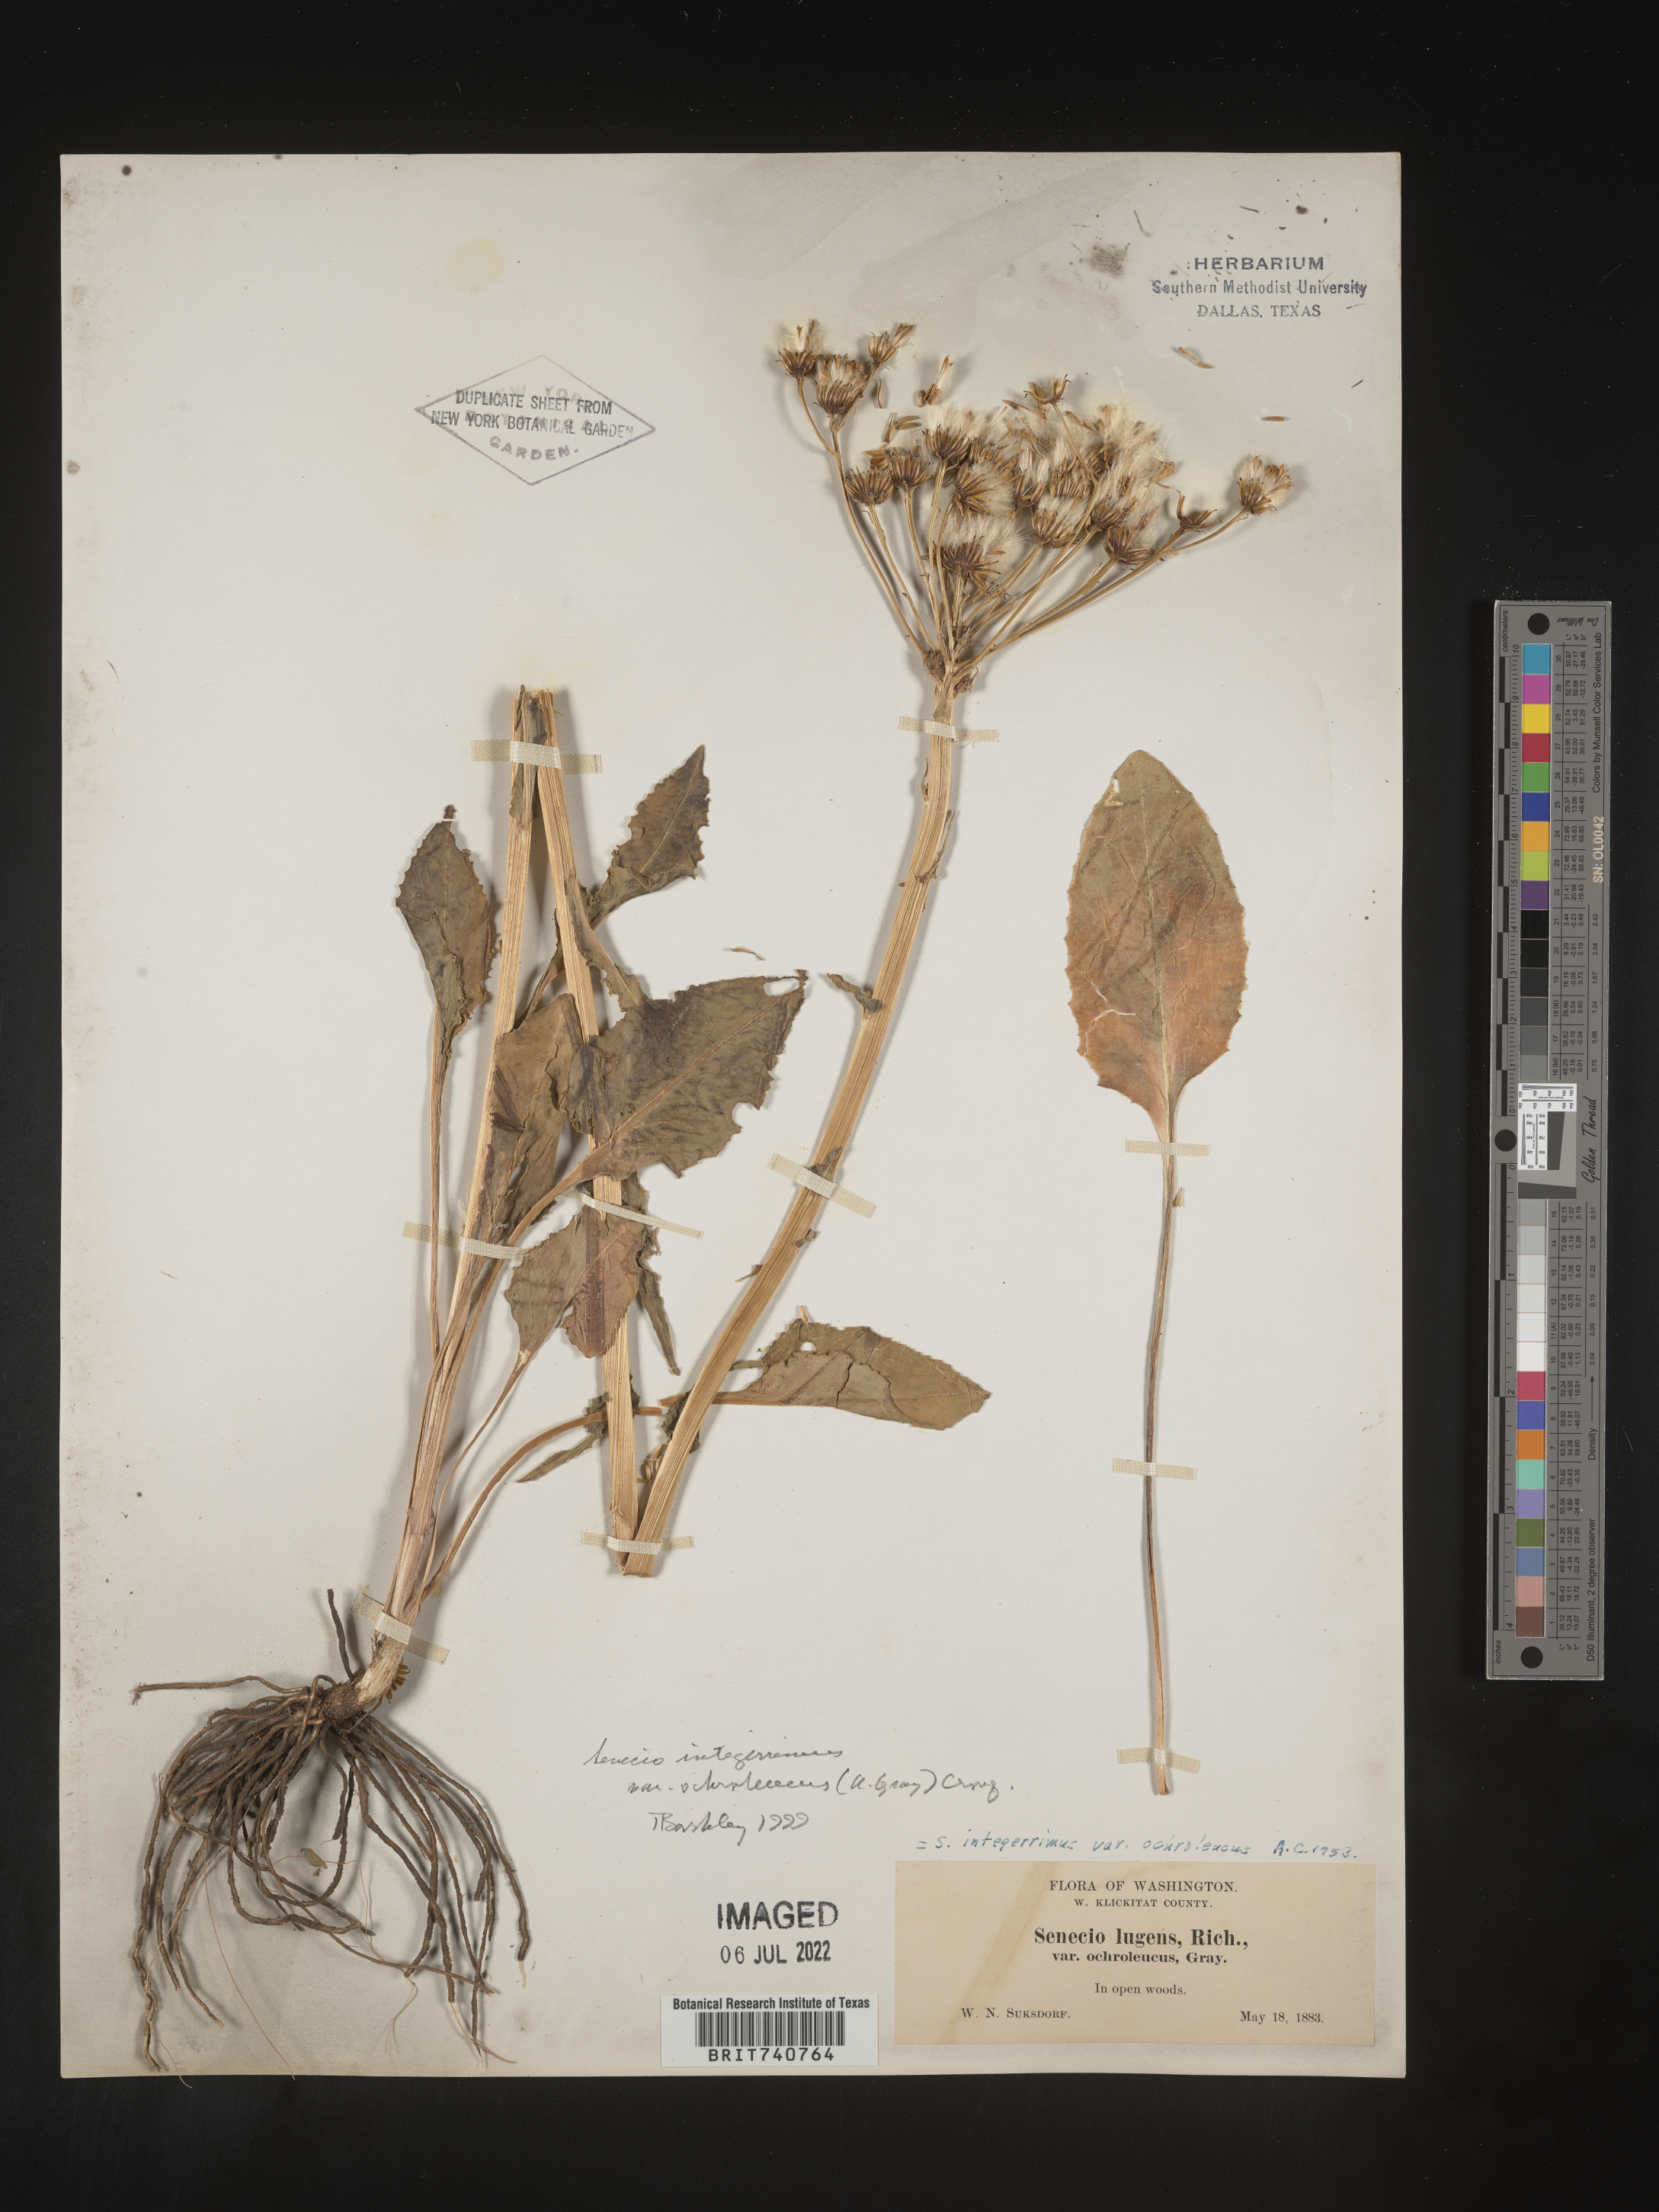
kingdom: Plantae
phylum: Tracheophyta
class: Magnoliopsida
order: Asterales
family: Asteraceae
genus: Senecio
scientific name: Senecio integerrimus
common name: Gaugeplant
